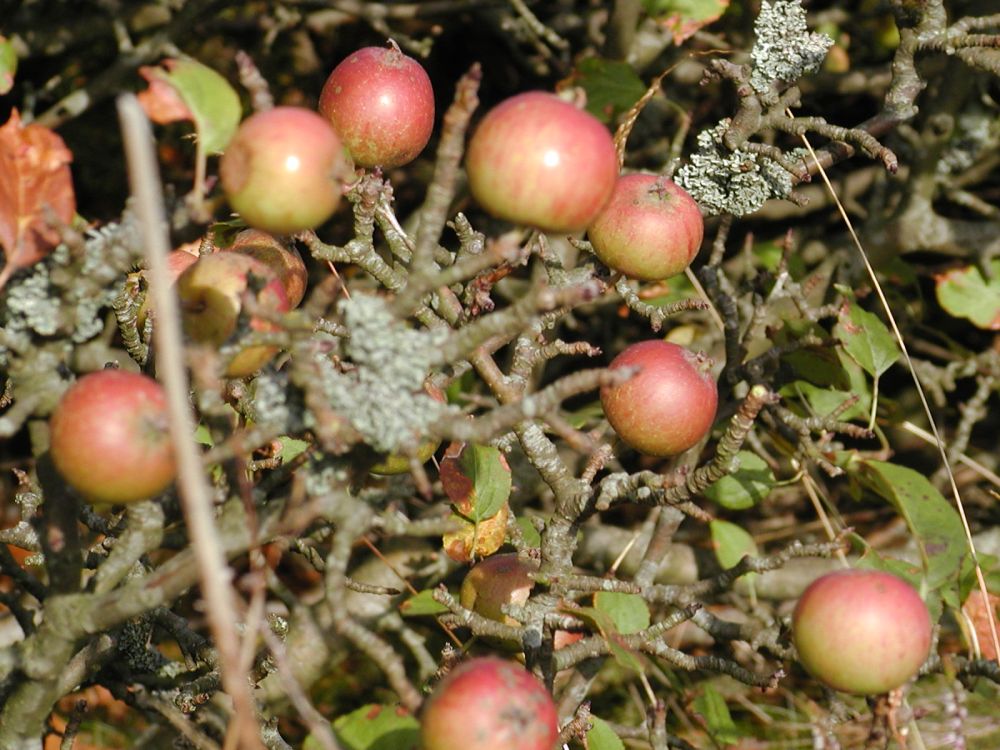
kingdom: Plantae
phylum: Tracheophyta
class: Magnoliopsida
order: Rosales
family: Rosaceae
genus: Malus
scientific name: Malus sylvestris
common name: Crab apple
